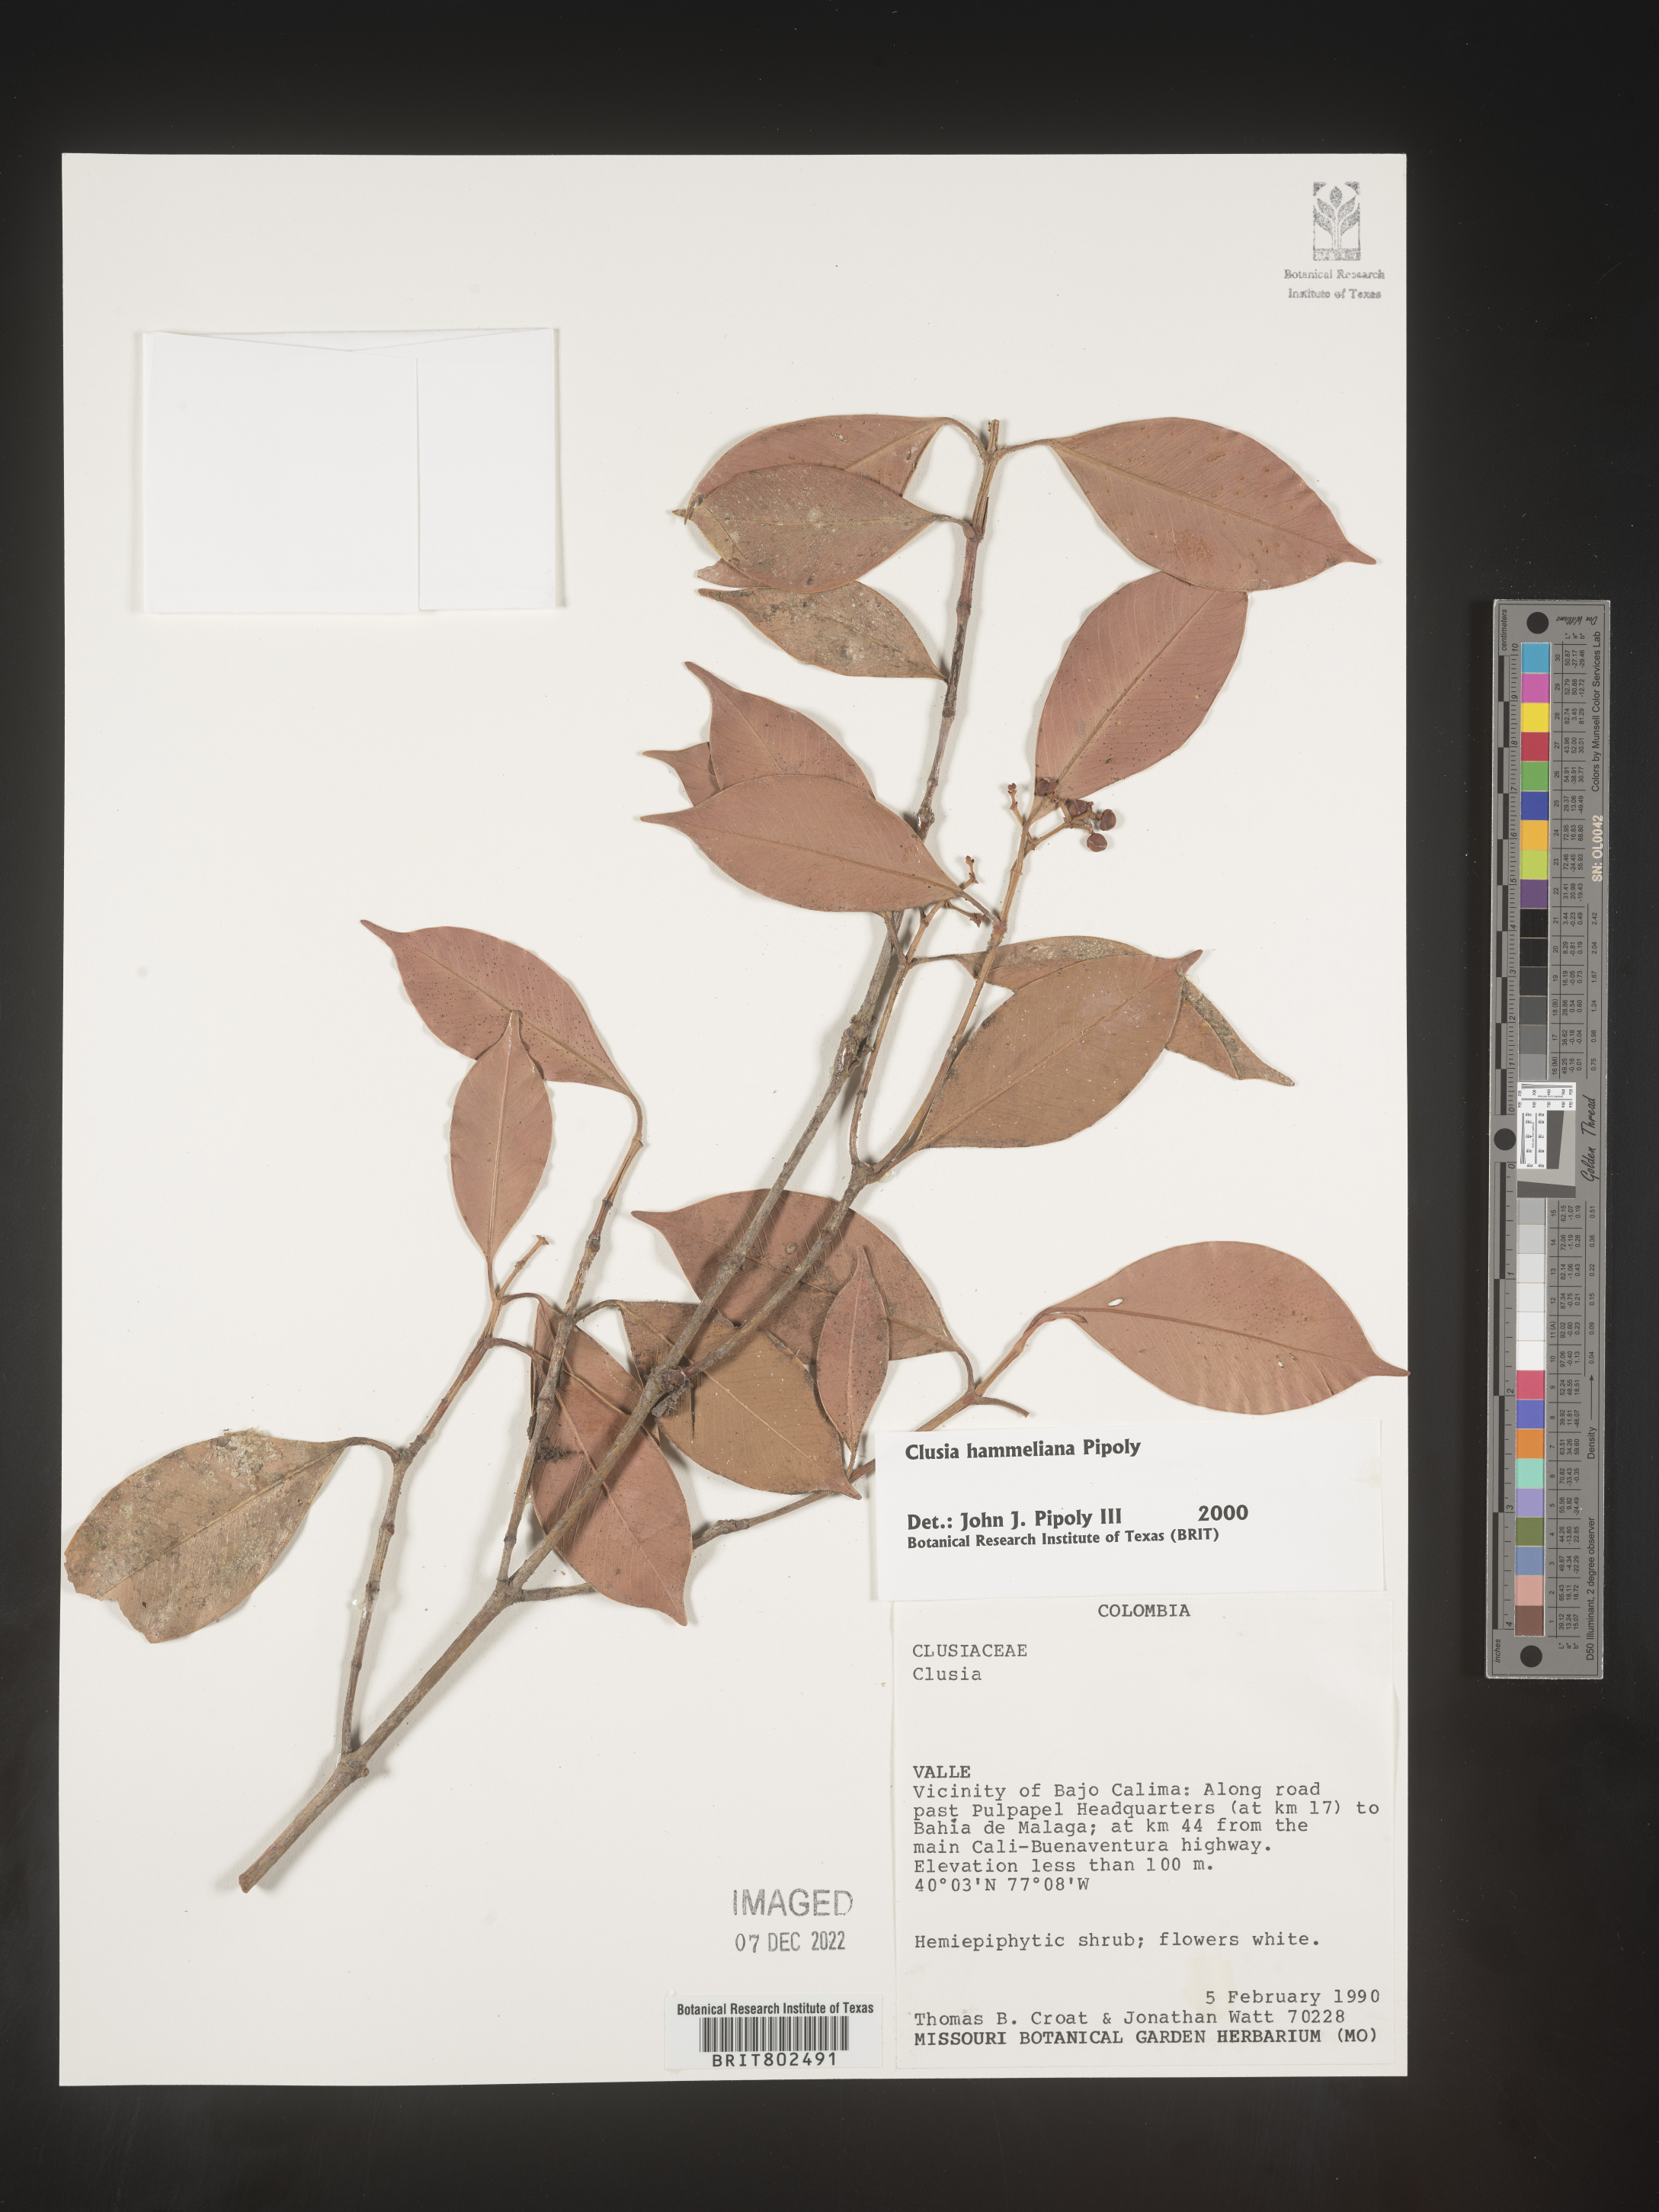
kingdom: Plantae
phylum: Tracheophyta
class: Magnoliopsida
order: Malpighiales
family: Clusiaceae
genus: Clusia
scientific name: Clusia hammeliana
